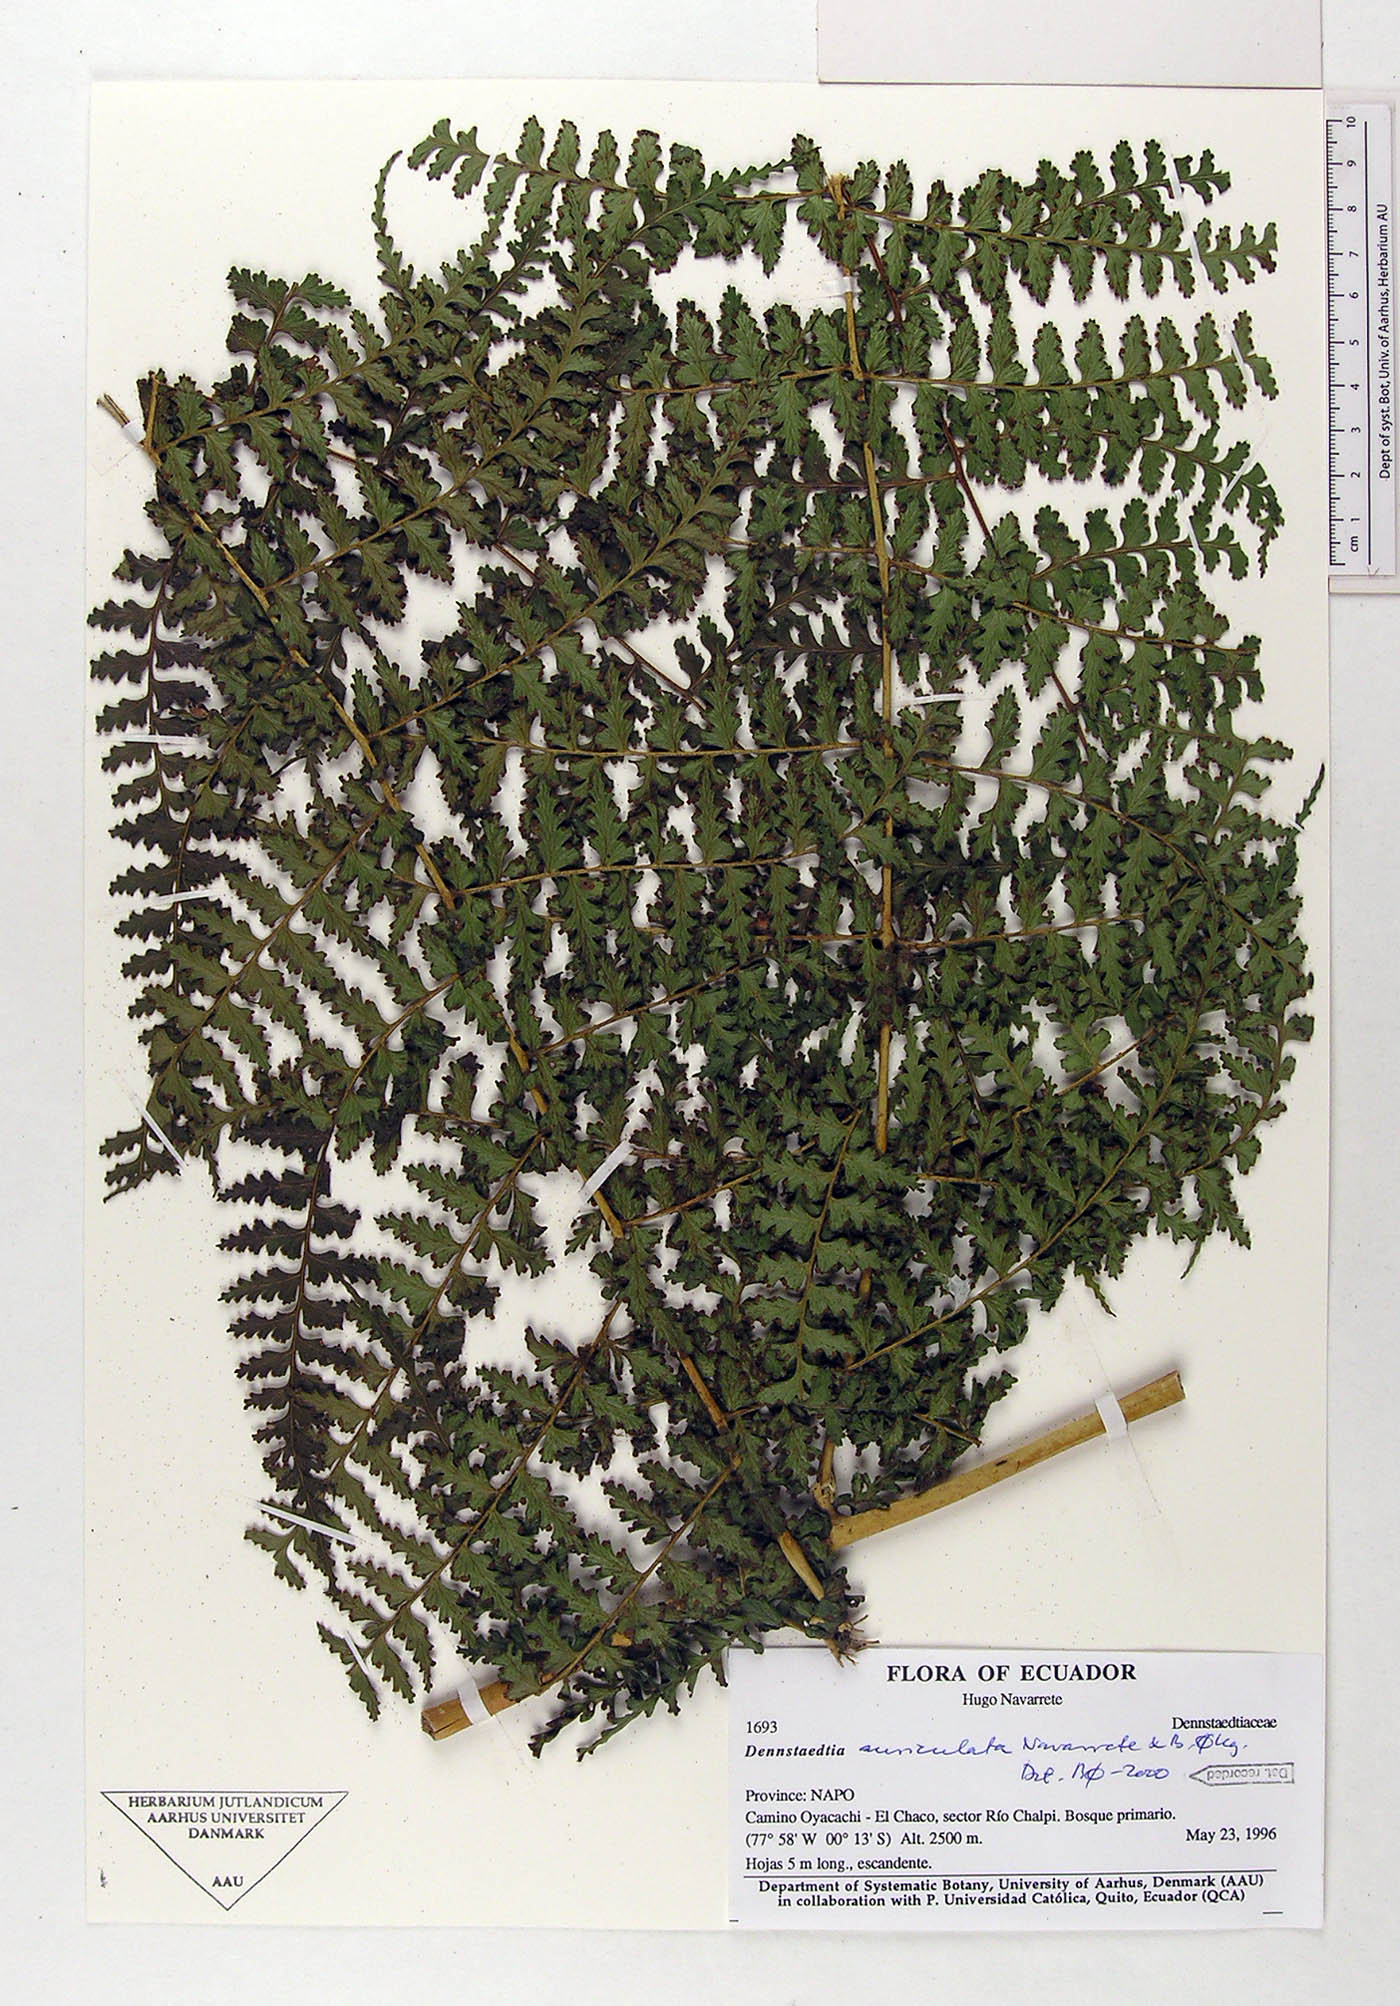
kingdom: Plantae
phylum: Tracheophyta
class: Polypodiopsida
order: Polypodiales
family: Dennstaedtiaceae
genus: Dennstaedtia
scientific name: Dennstaedtia auriculata
